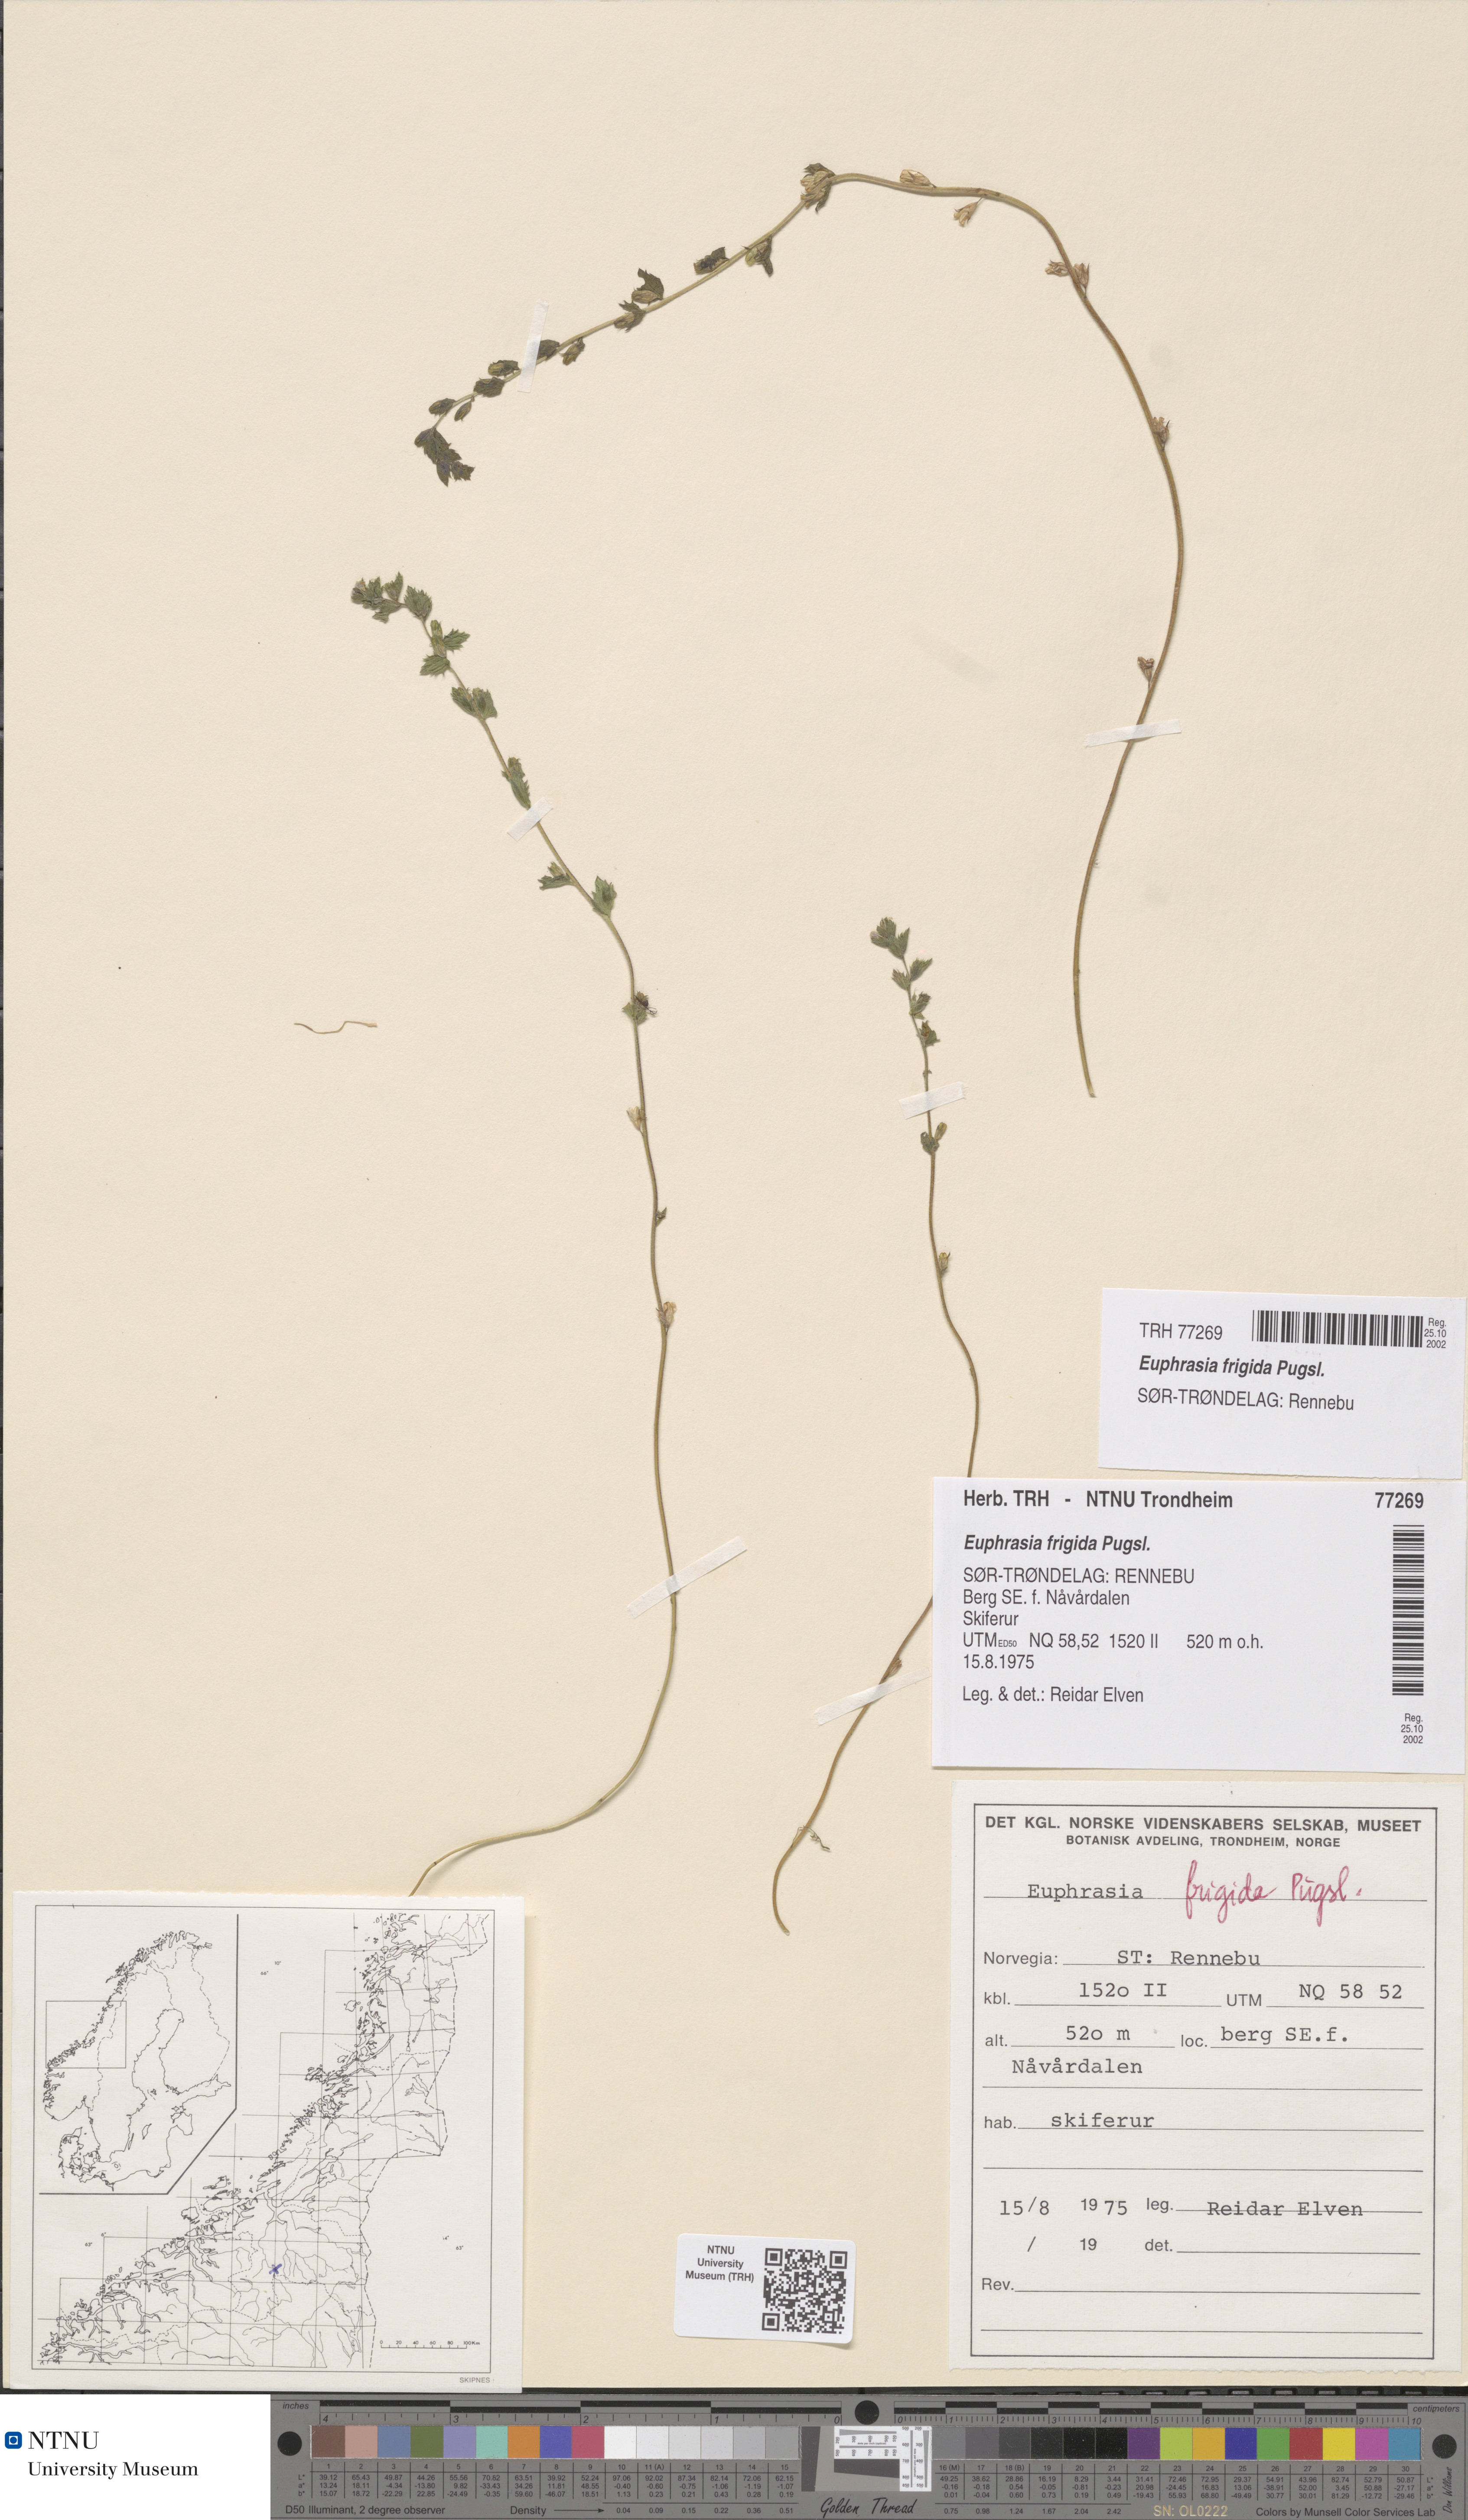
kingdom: Plantae
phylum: Tracheophyta
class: Magnoliopsida
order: Lamiales
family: Orobanchaceae
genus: Euphrasia
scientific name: Euphrasia wettsteinii
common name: Wettstein's eyebright
